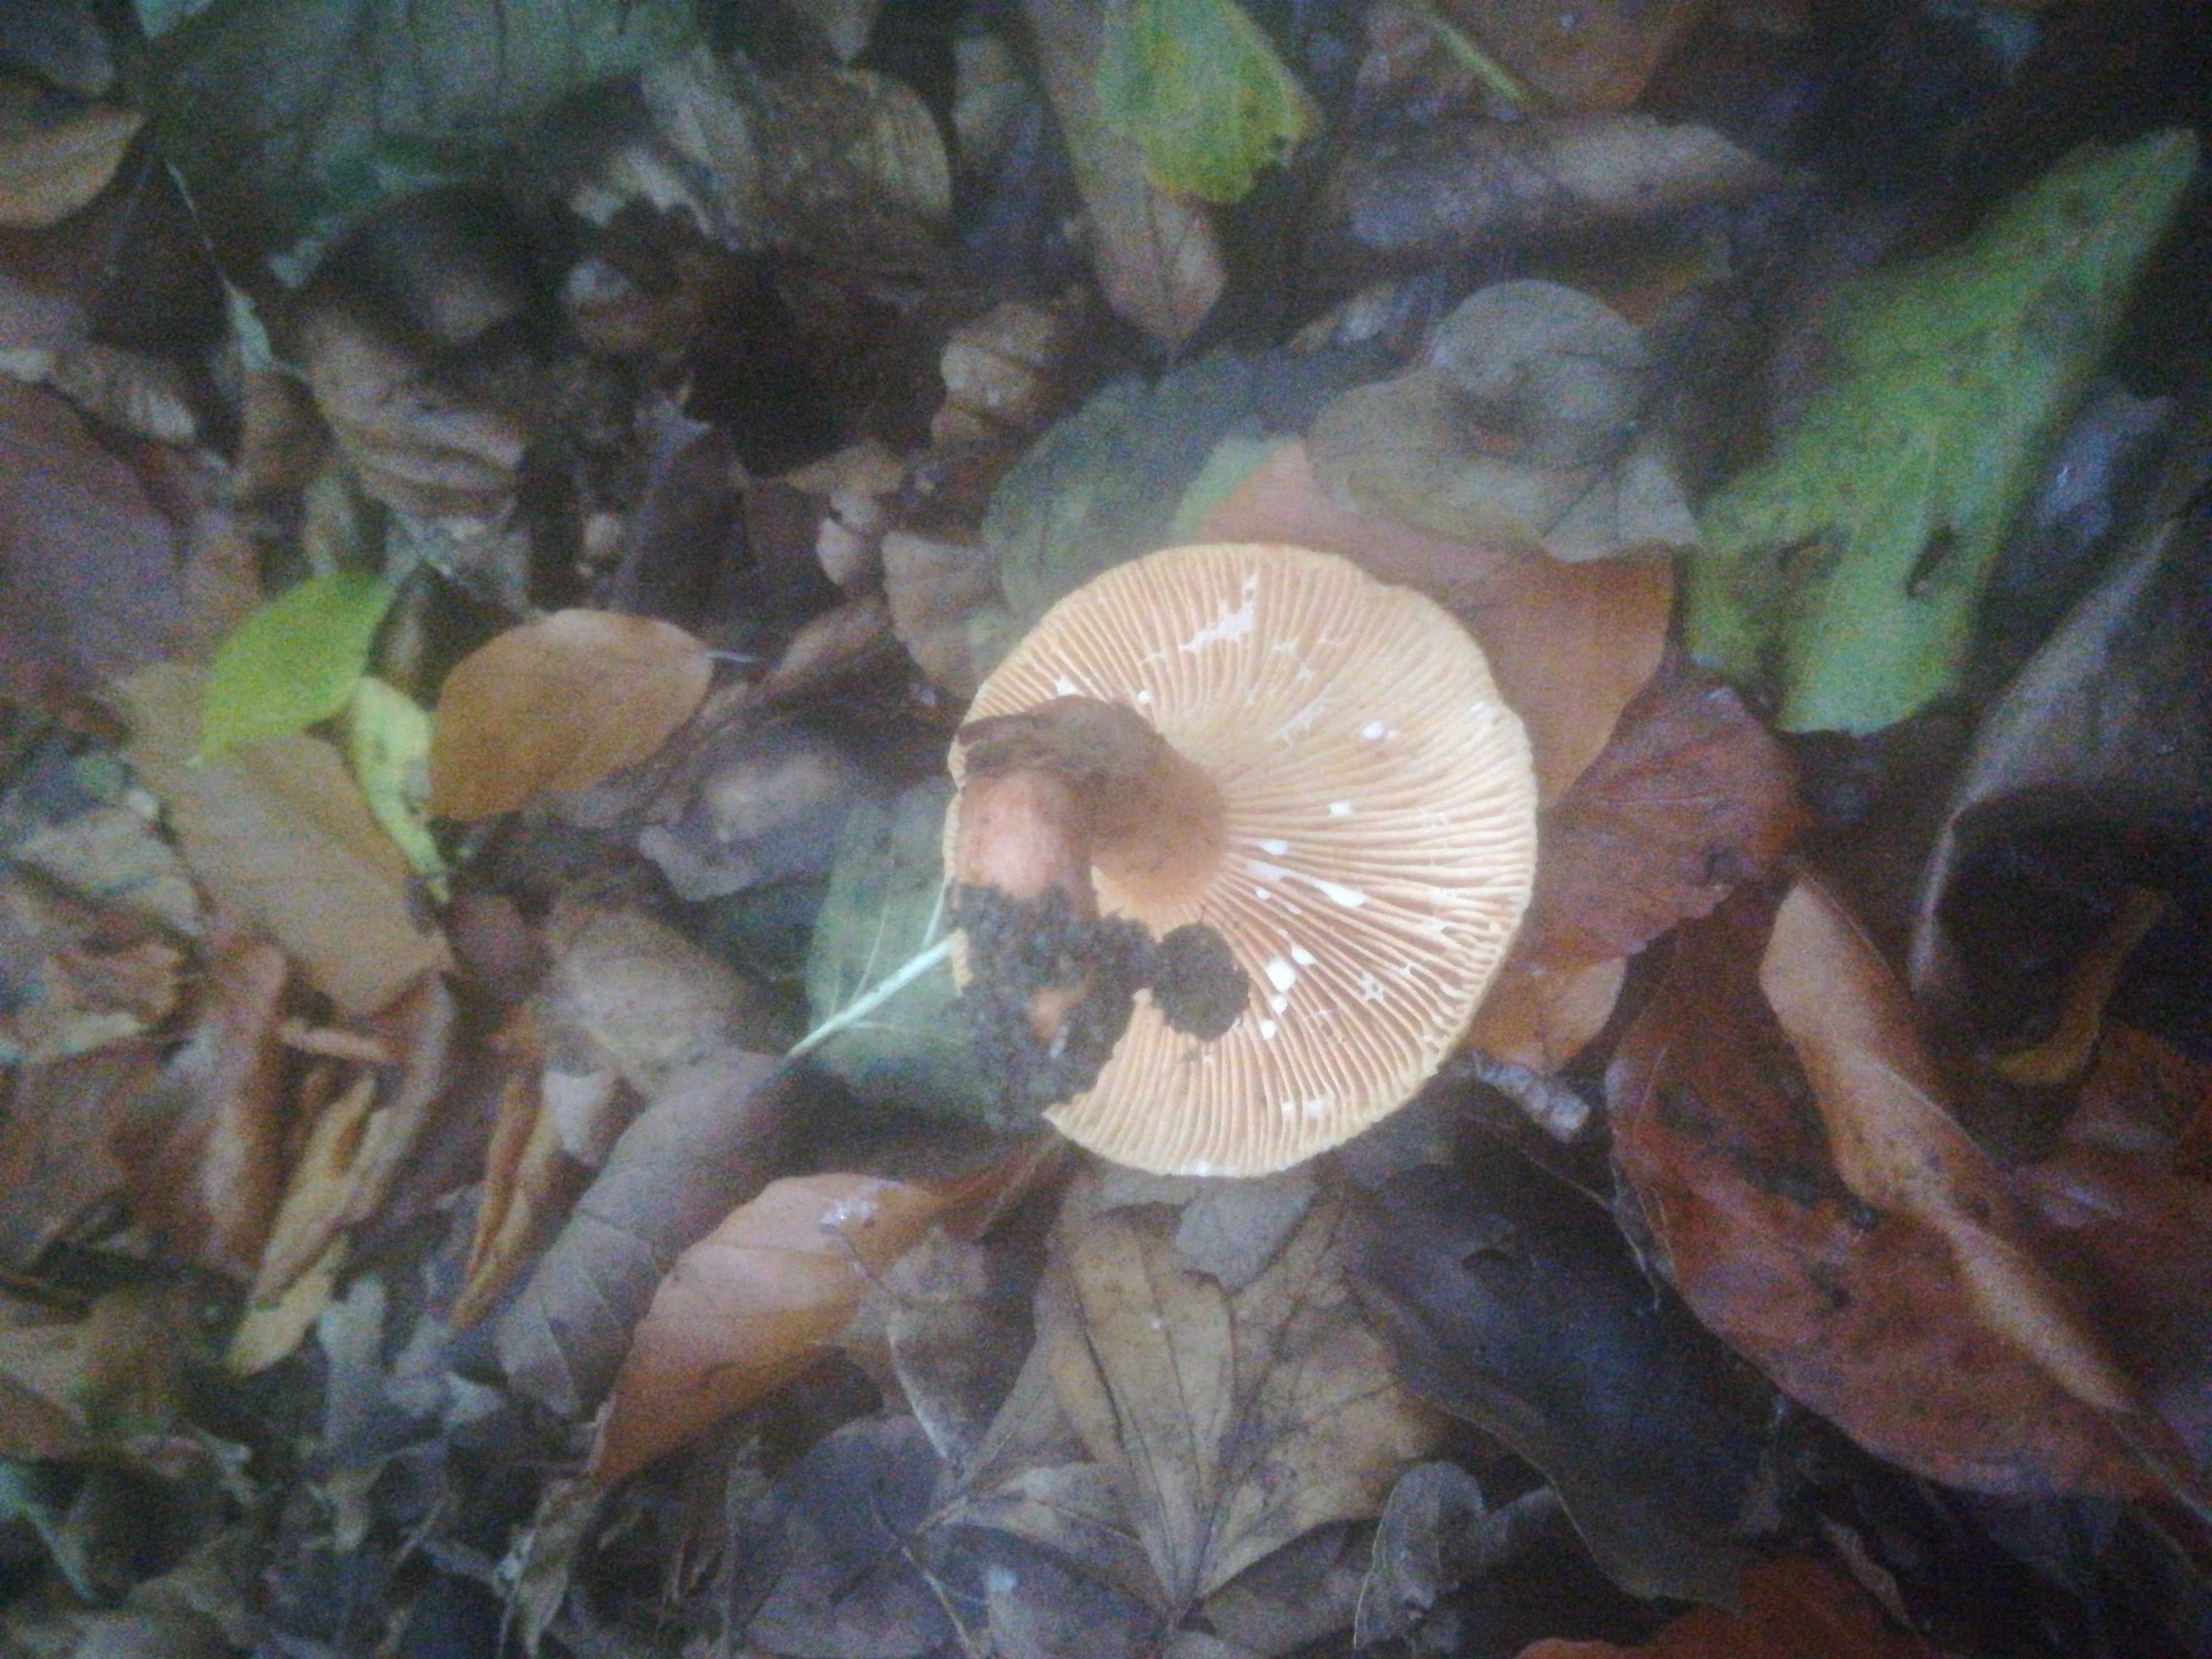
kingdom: Fungi
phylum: Basidiomycota
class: Agaricomycetes
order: Russulales
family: Russulaceae
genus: Lactarius
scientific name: Lactarius
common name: mælkehat
